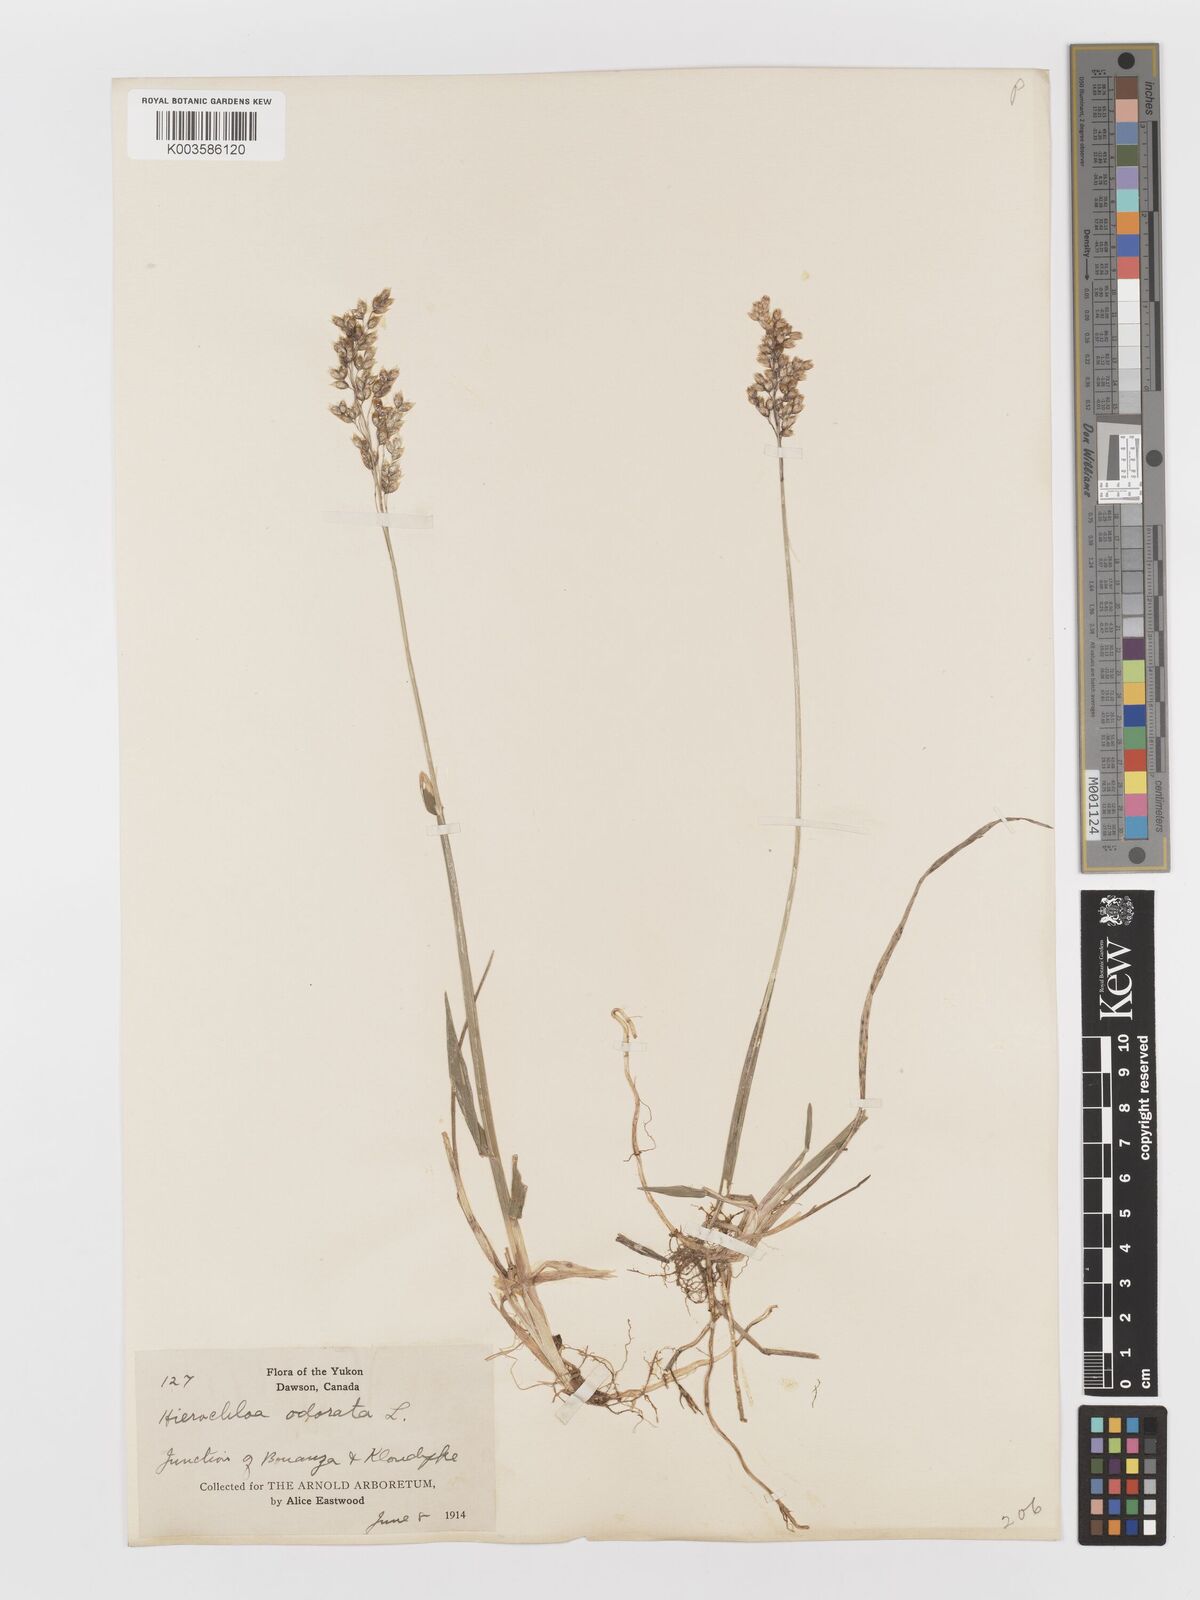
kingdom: Plantae
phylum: Tracheophyta
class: Liliopsida
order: Poales
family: Poaceae
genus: Anthoxanthum
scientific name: Anthoxanthum nitens
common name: Holy grass
